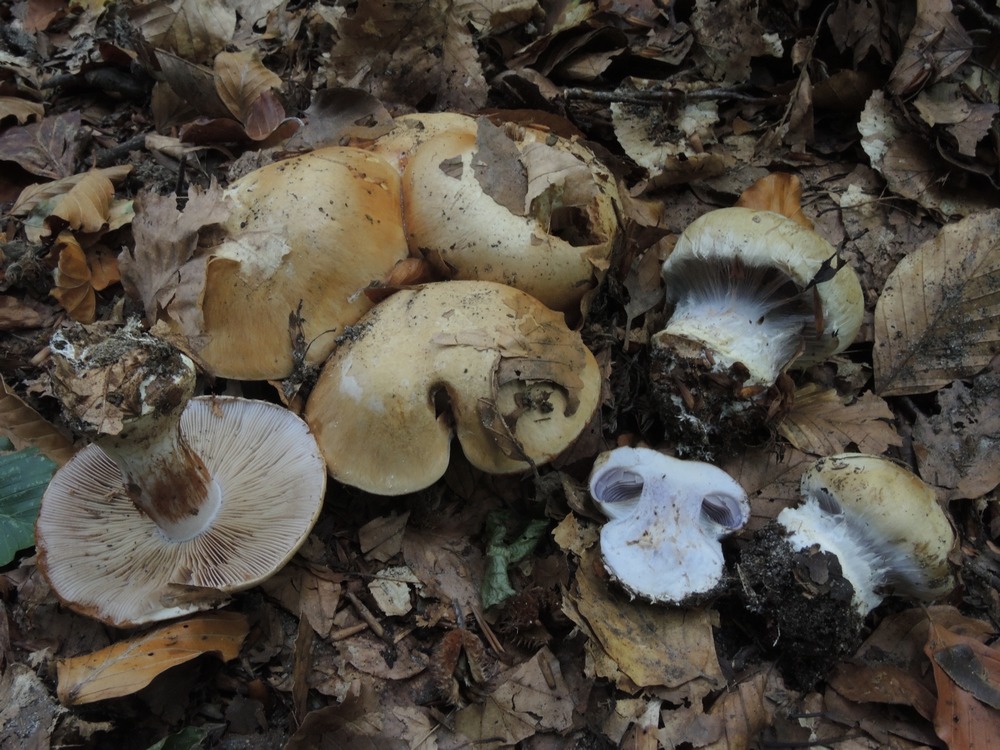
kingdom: Fungi
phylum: Basidiomycota
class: Agaricomycetes
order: Agaricales
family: Cortinariaceae
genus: Cortinarius
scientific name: Cortinarius anserinus
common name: bøge-slørhat
